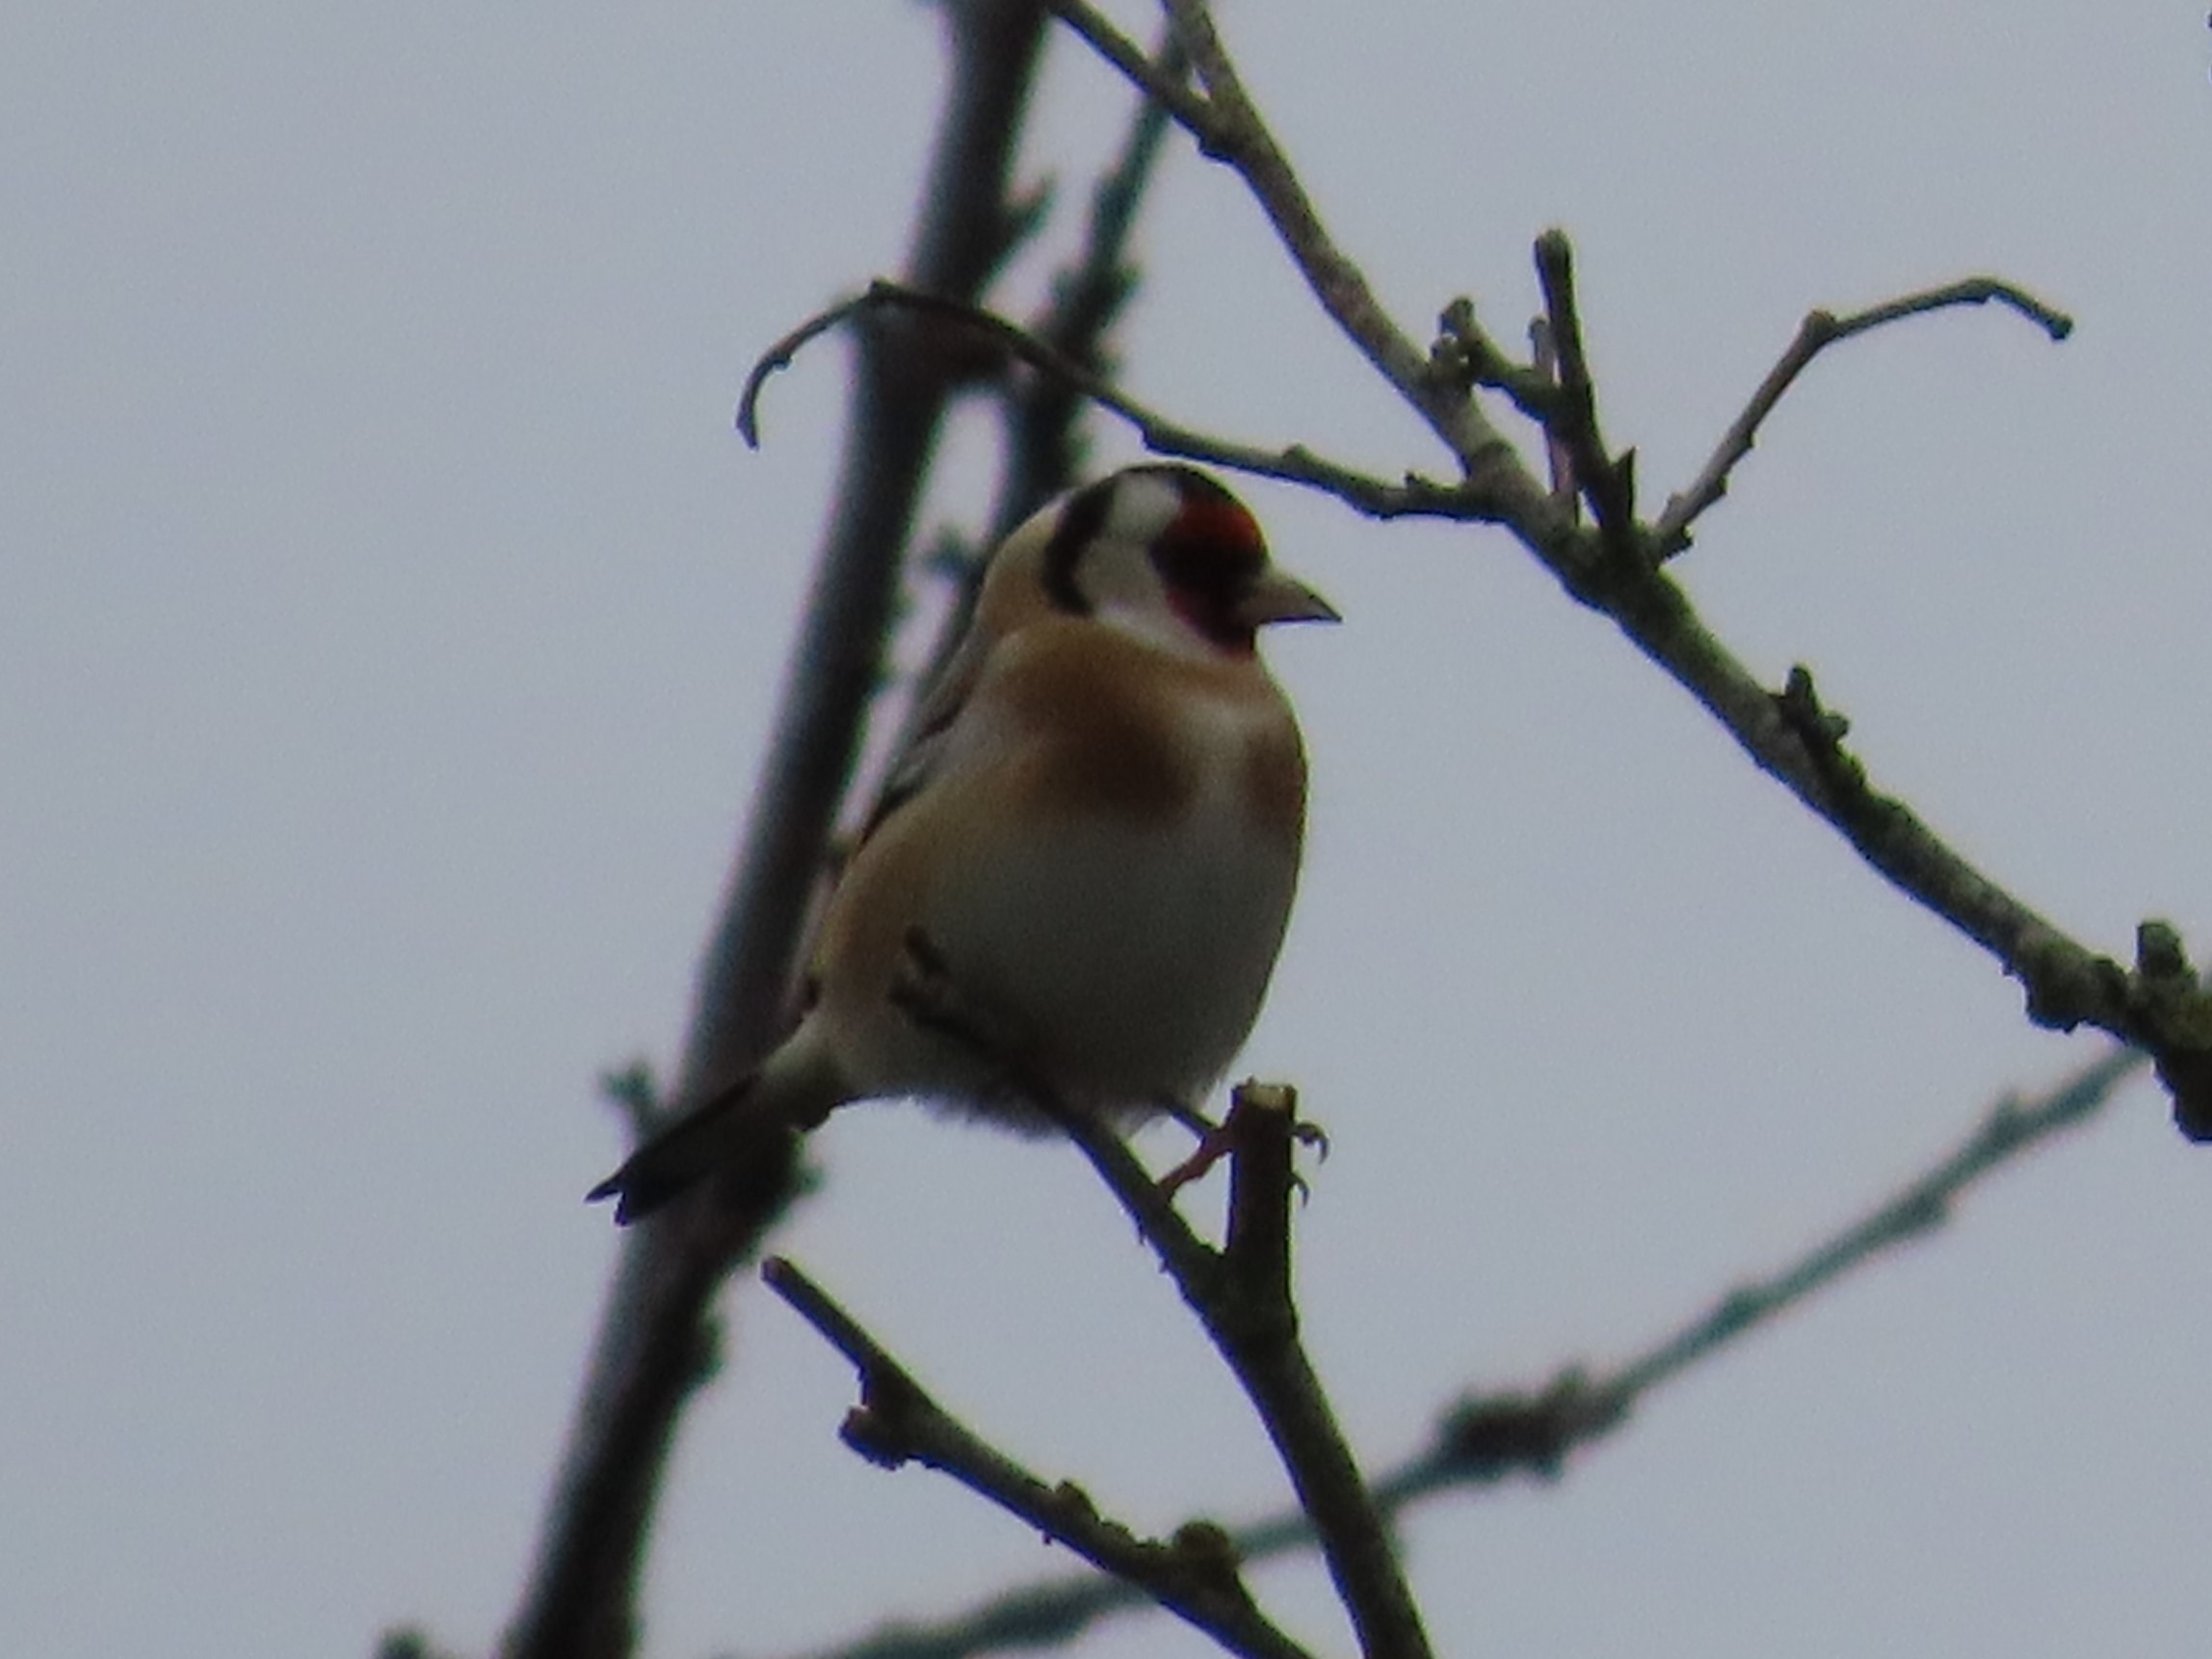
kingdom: Animalia
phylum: Chordata
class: Aves
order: Passeriformes
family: Fringillidae
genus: Carduelis
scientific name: Carduelis carduelis
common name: Stillits
